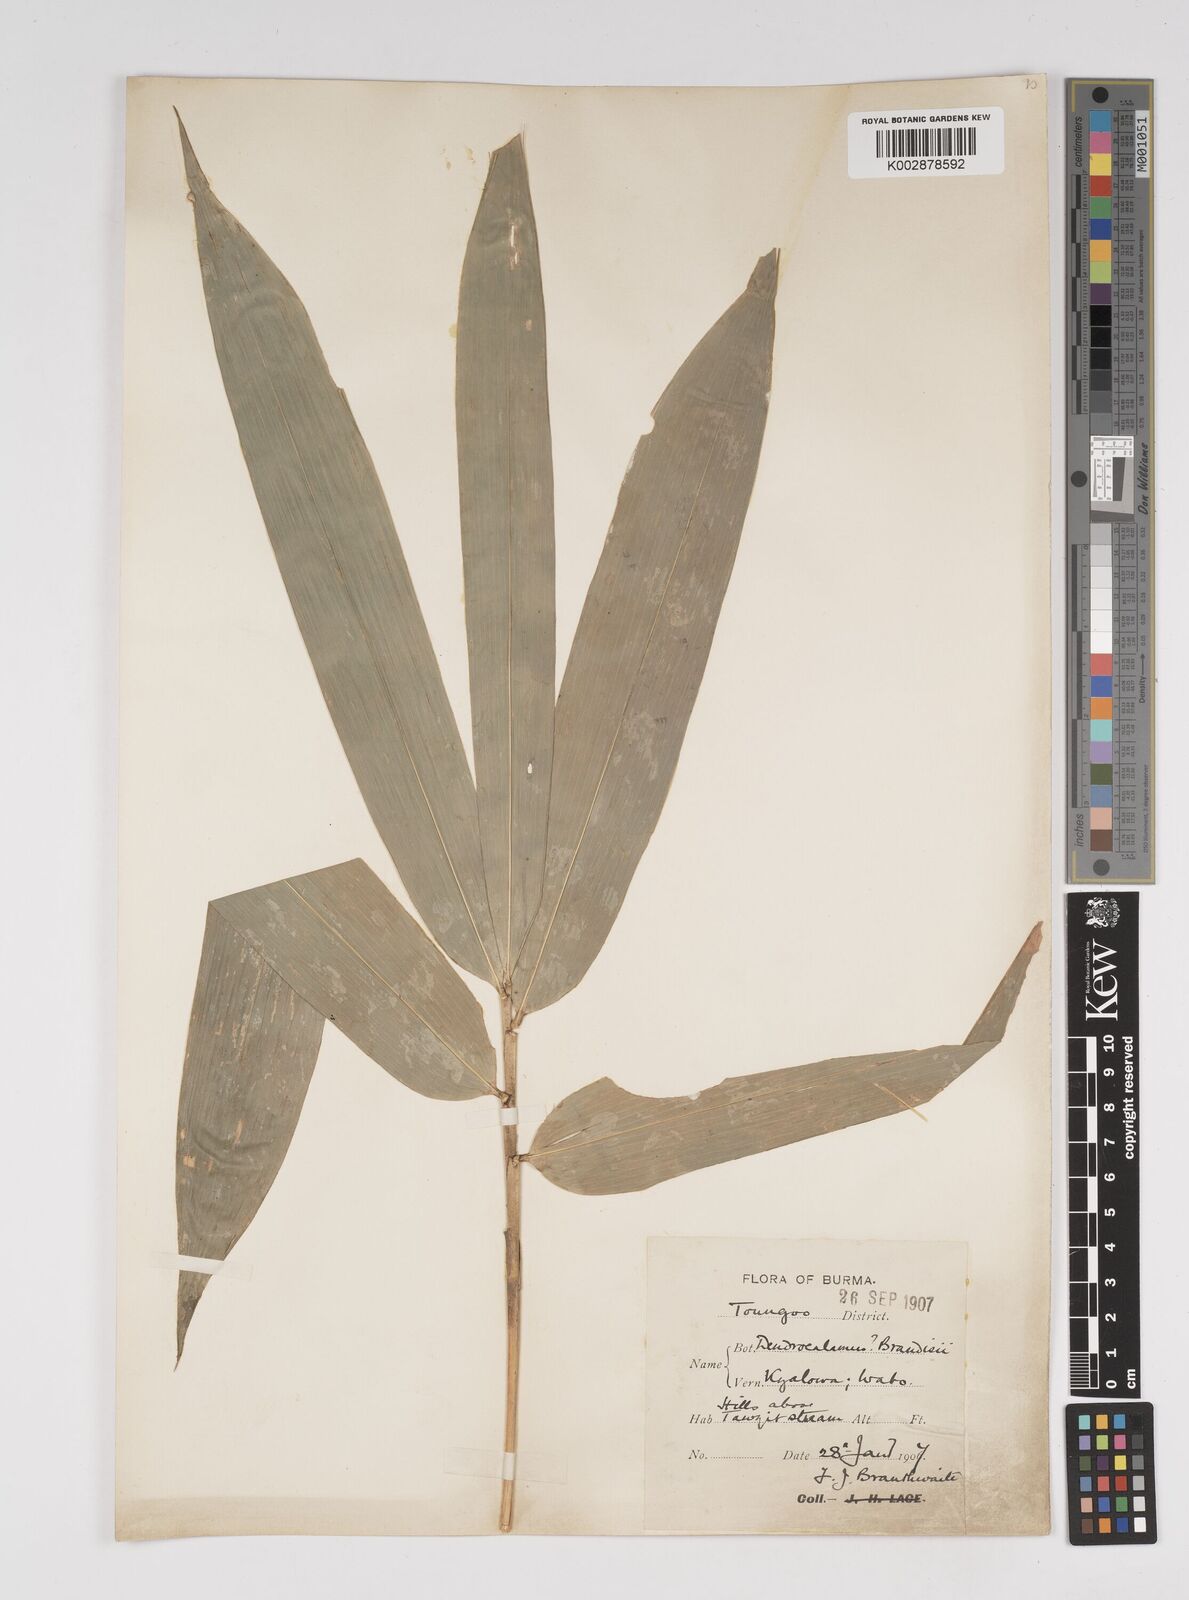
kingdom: Plantae
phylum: Tracheophyta
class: Liliopsida
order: Poales
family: Poaceae
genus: Dendrocalamus
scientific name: Dendrocalamus brandisii
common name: Velvetleaf bamboo
